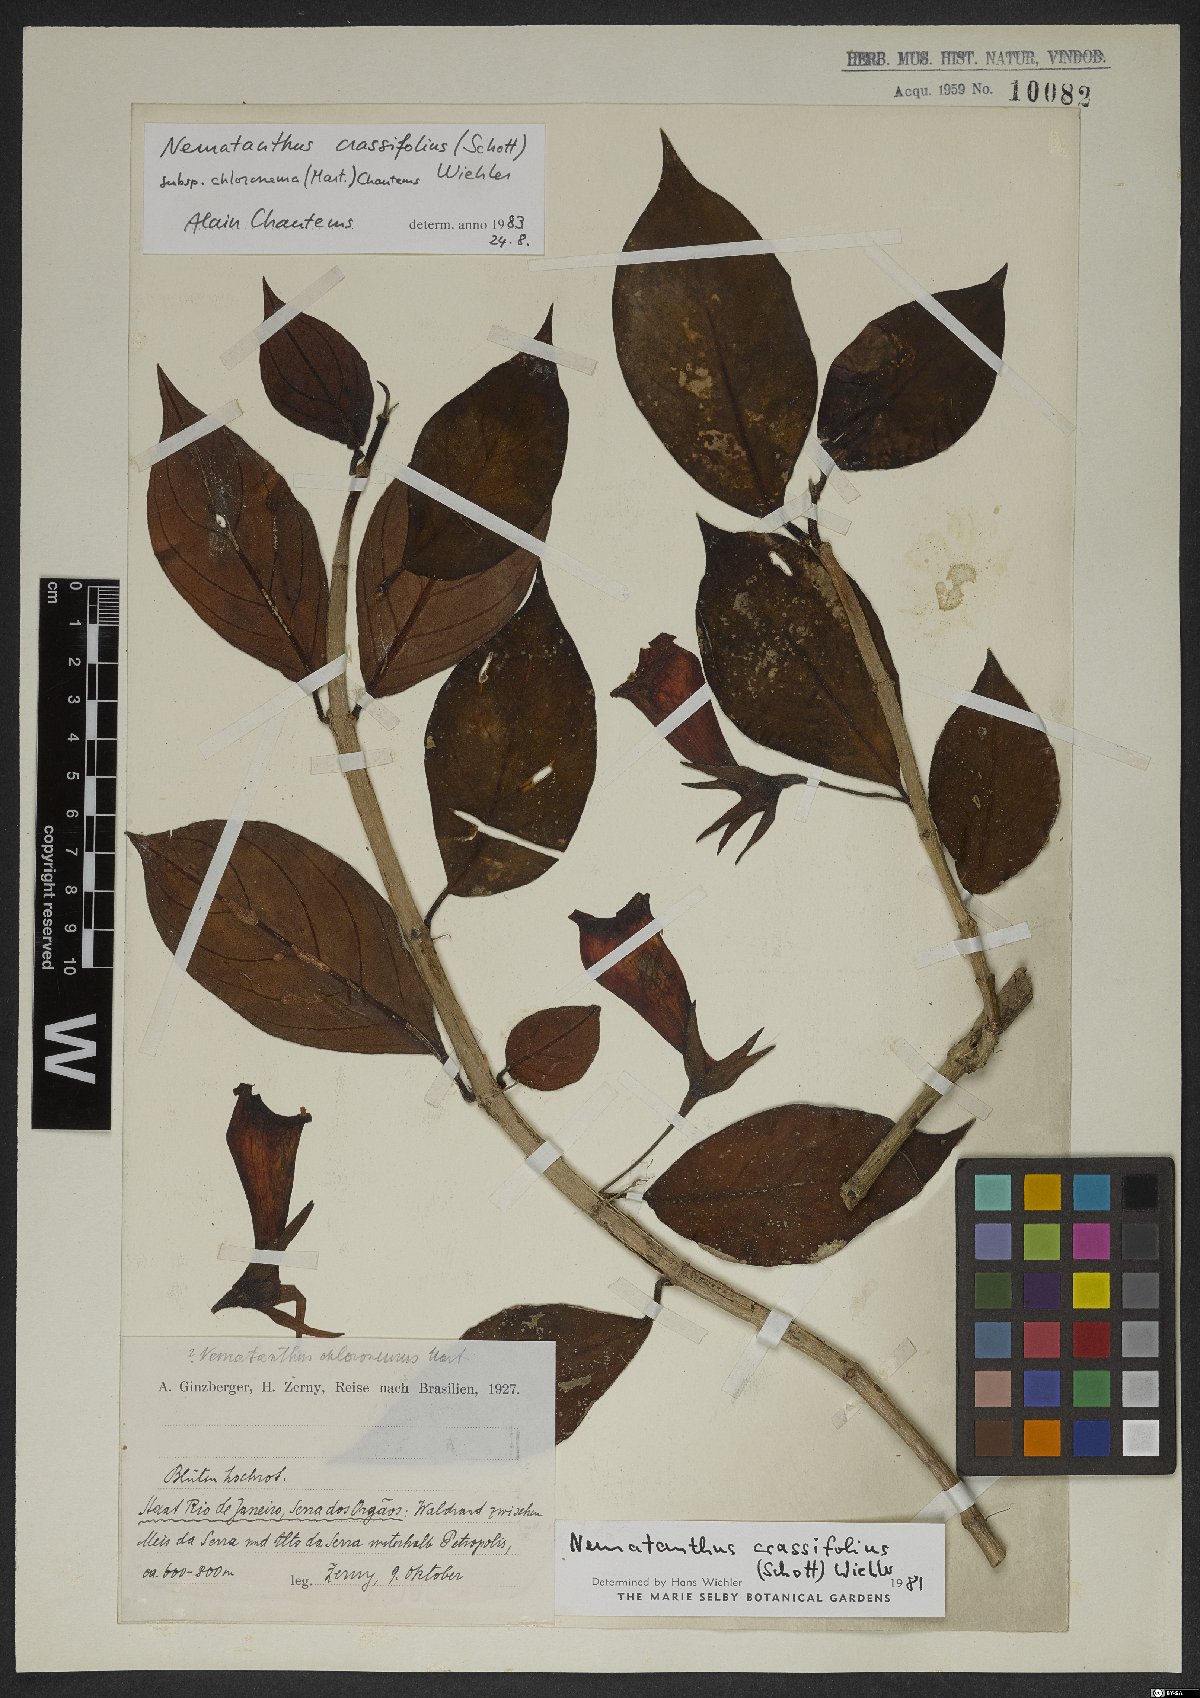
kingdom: Plantae
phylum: Tracheophyta
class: Magnoliopsida
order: Lamiales
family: Gesneriaceae
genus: Nematanthus
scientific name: Nematanthus crassifolius
